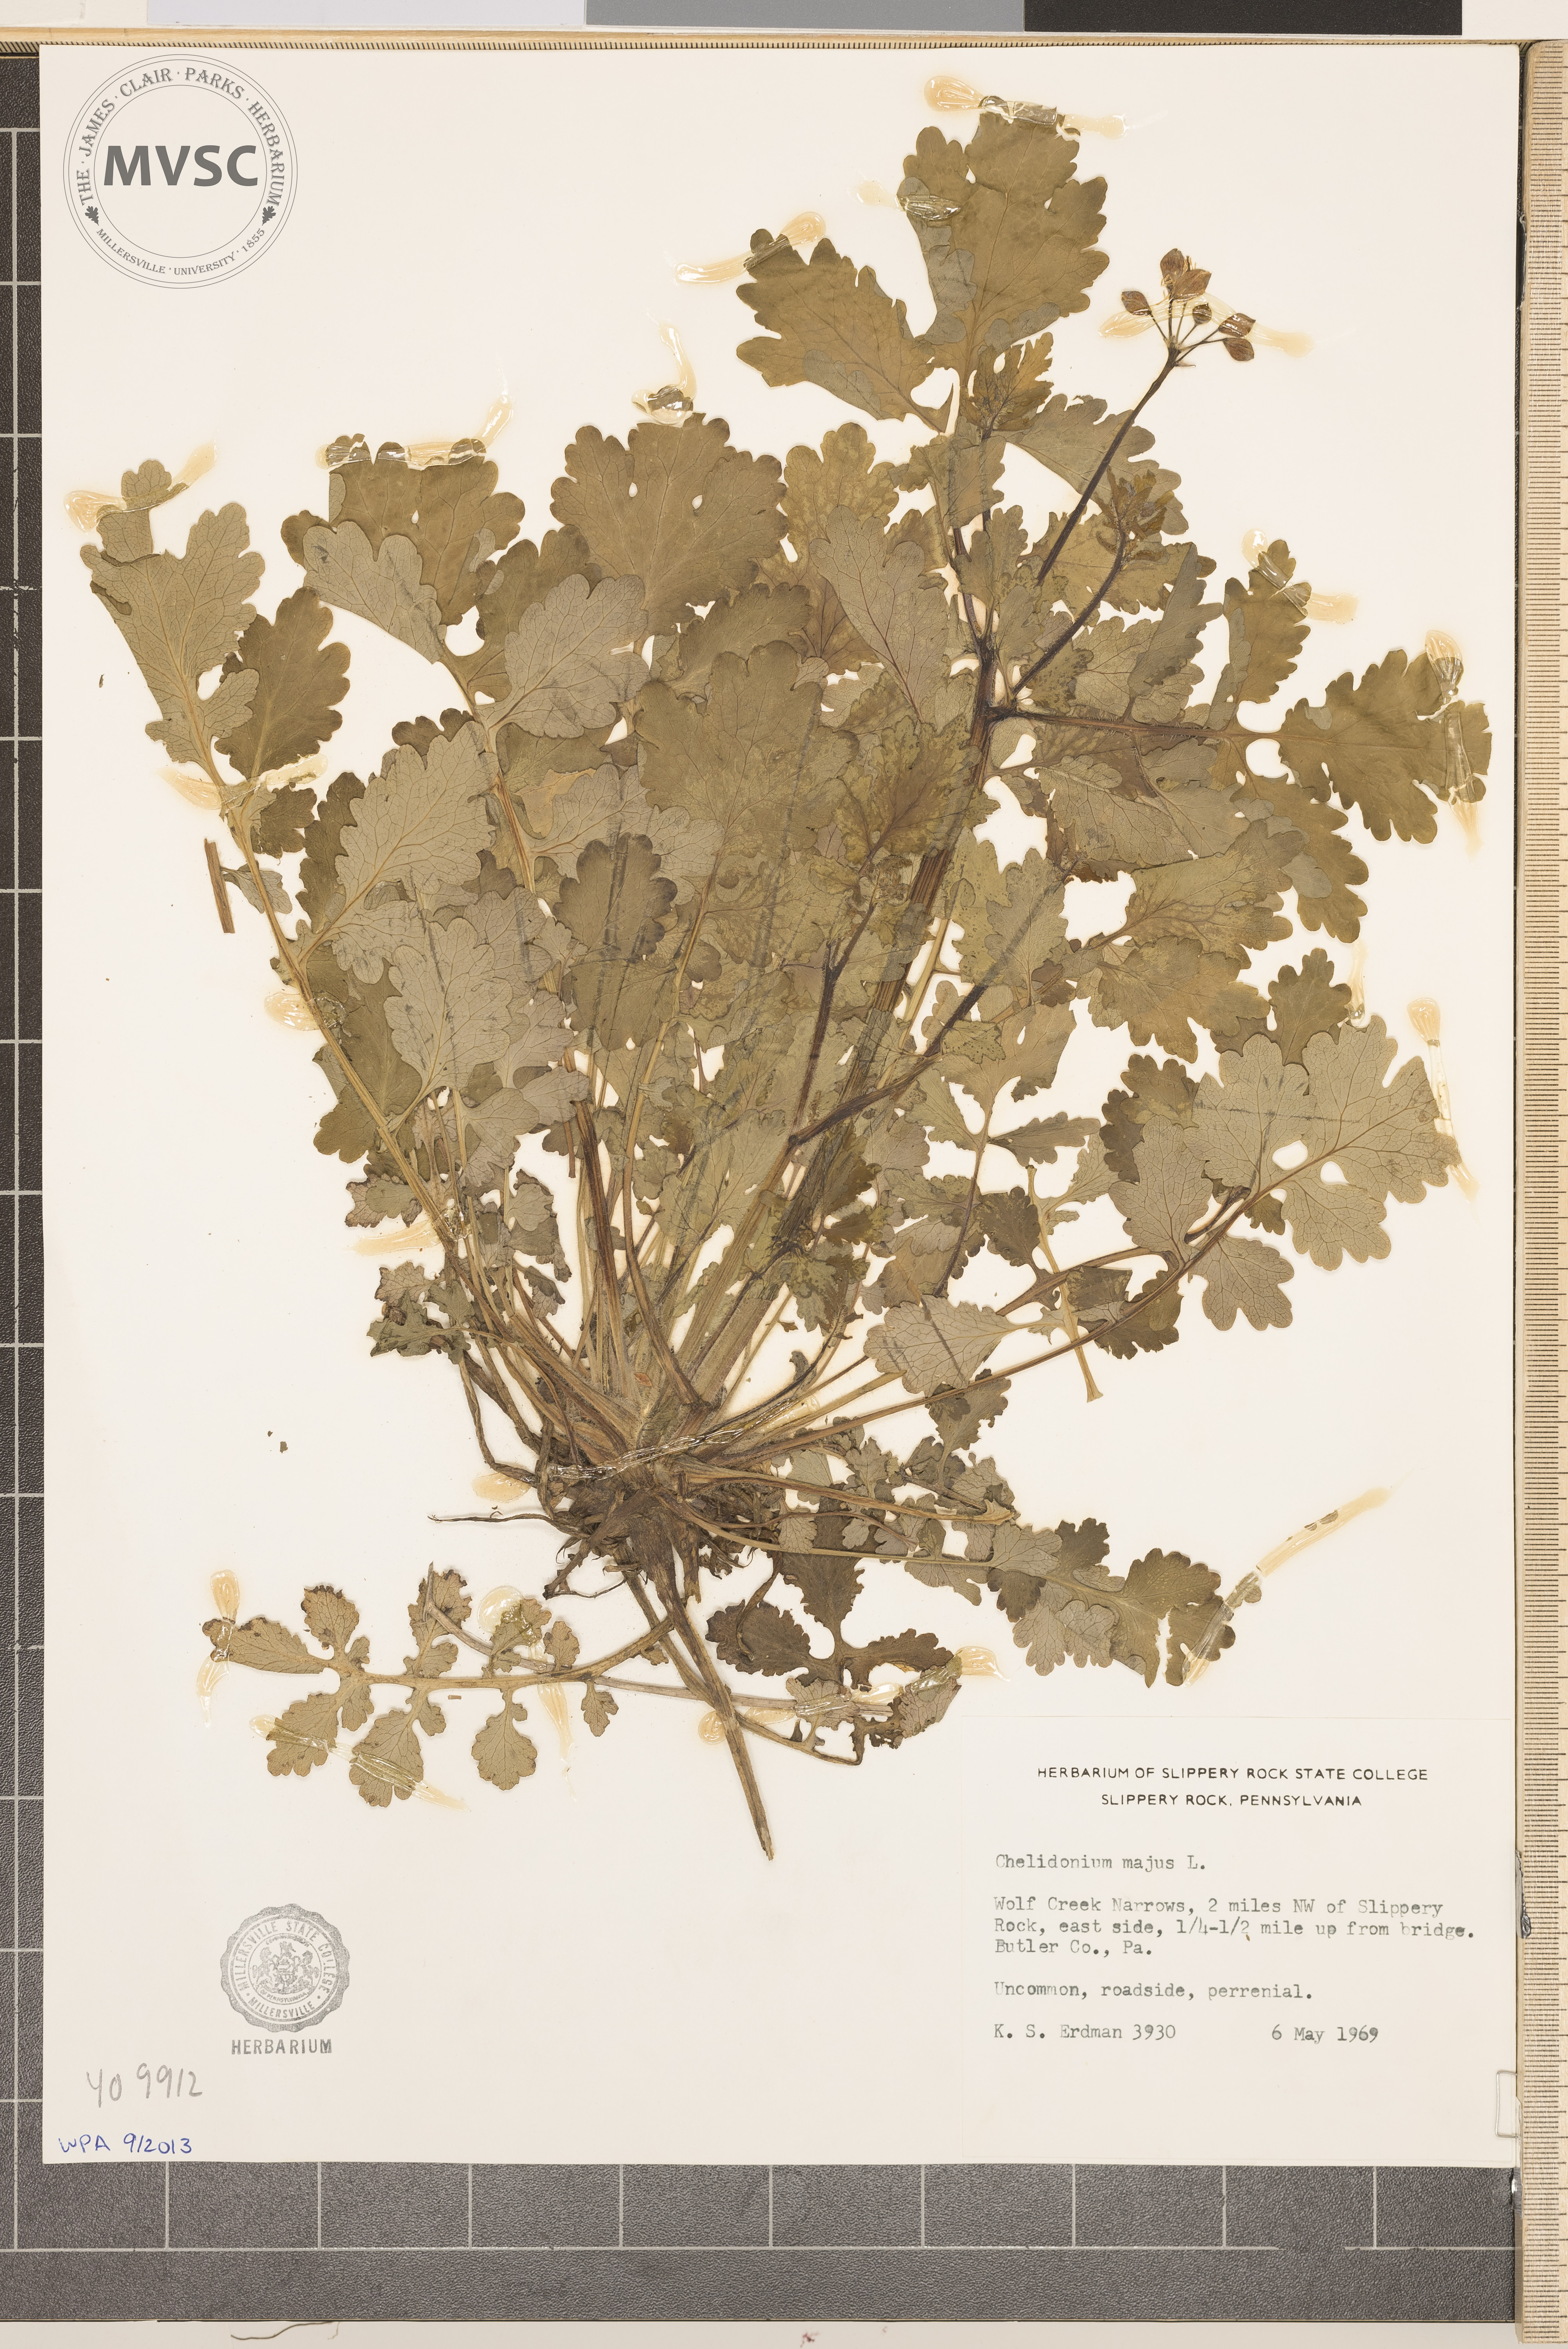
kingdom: Plantae
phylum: Tracheophyta
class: Magnoliopsida
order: Ranunculales
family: Papaveraceae
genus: Chelidonium
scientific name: Chelidonium majus
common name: Greater celandine
